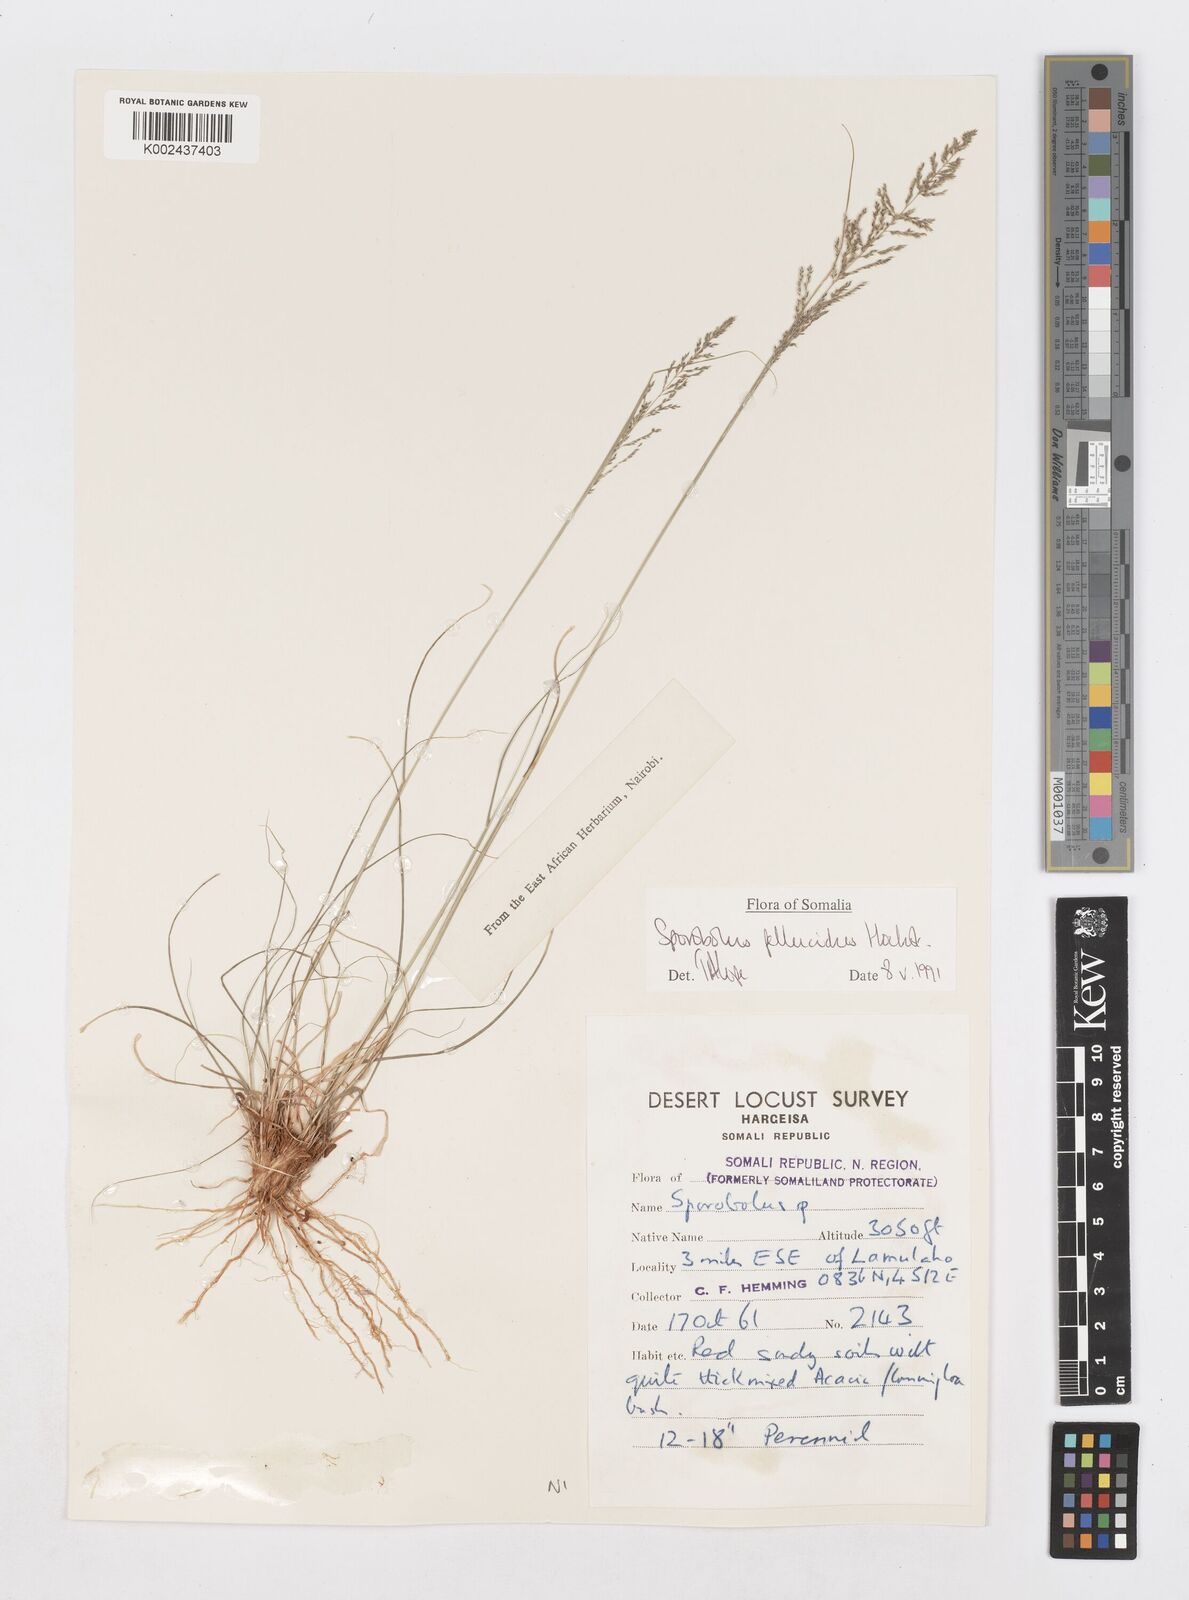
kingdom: Plantae
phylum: Tracheophyta
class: Liliopsida
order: Poales
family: Poaceae
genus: Sporobolus
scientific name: Sporobolus pellucidus
